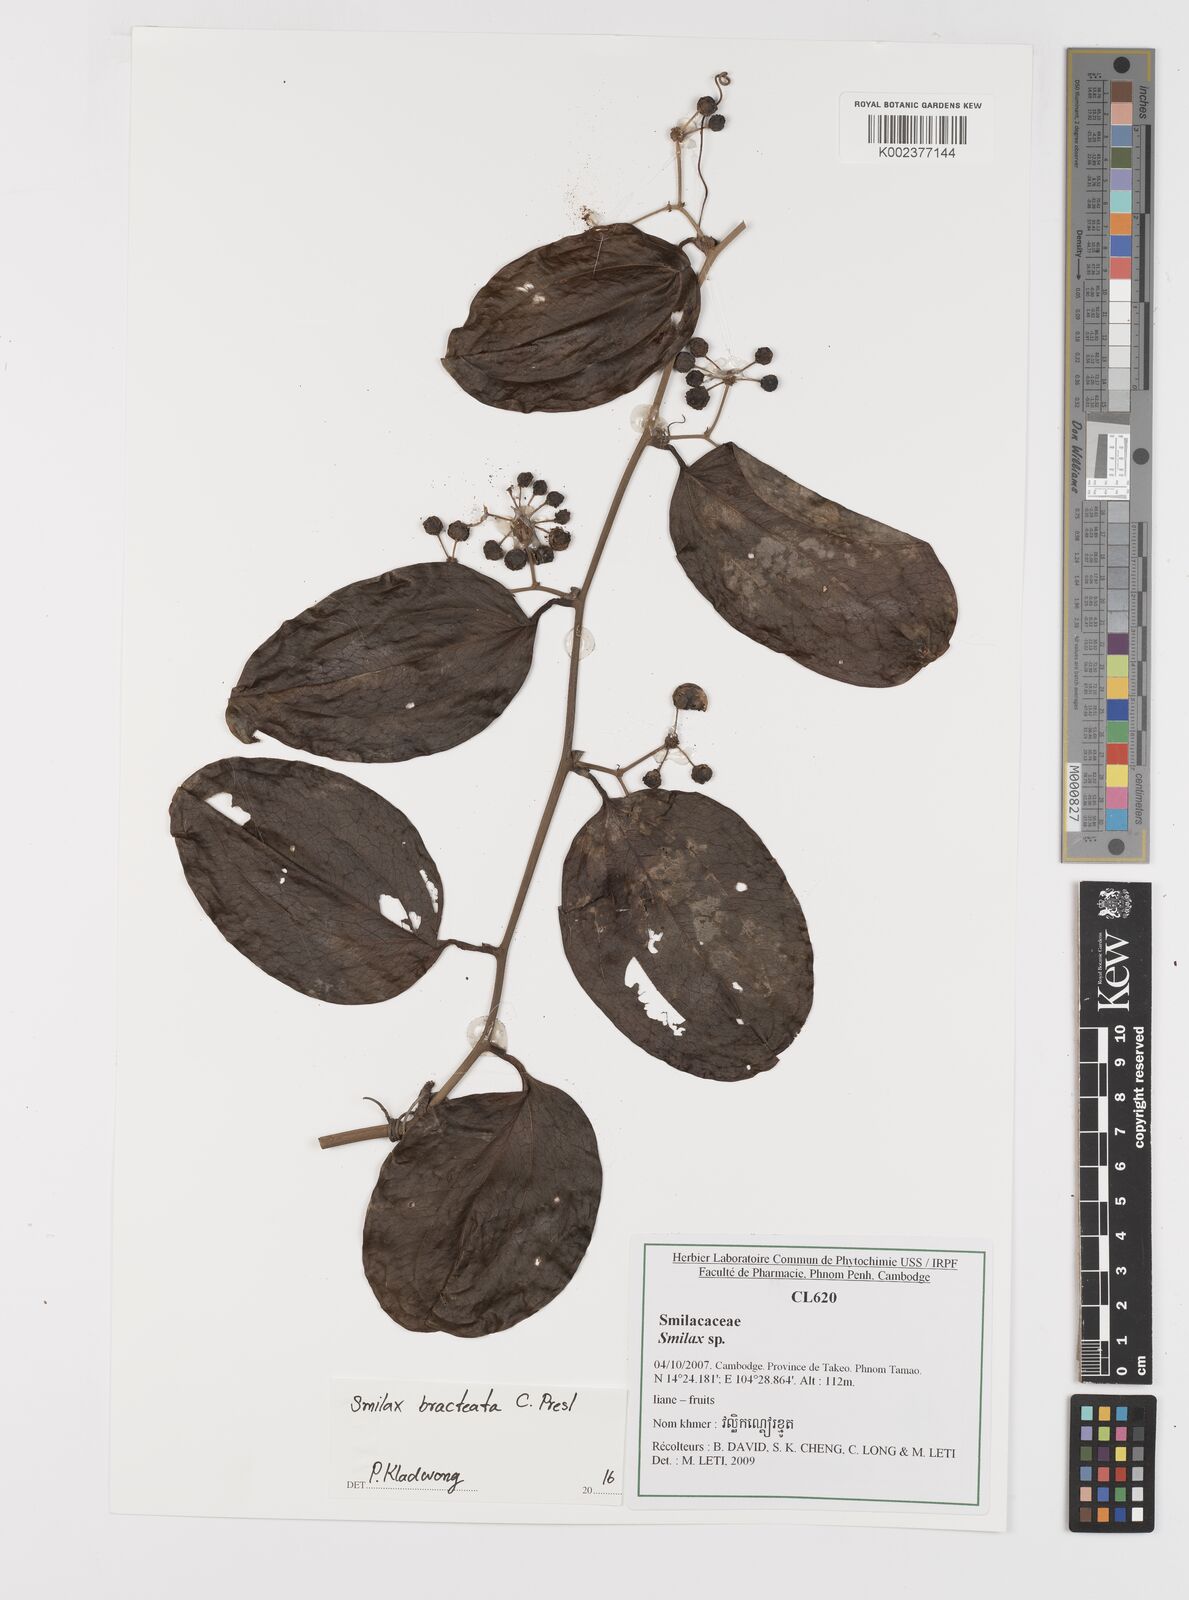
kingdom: Plantae
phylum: Tracheophyta
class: Liliopsida
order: Liliales
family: Smilacaceae
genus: Smilax
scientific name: Smilax bracteata
